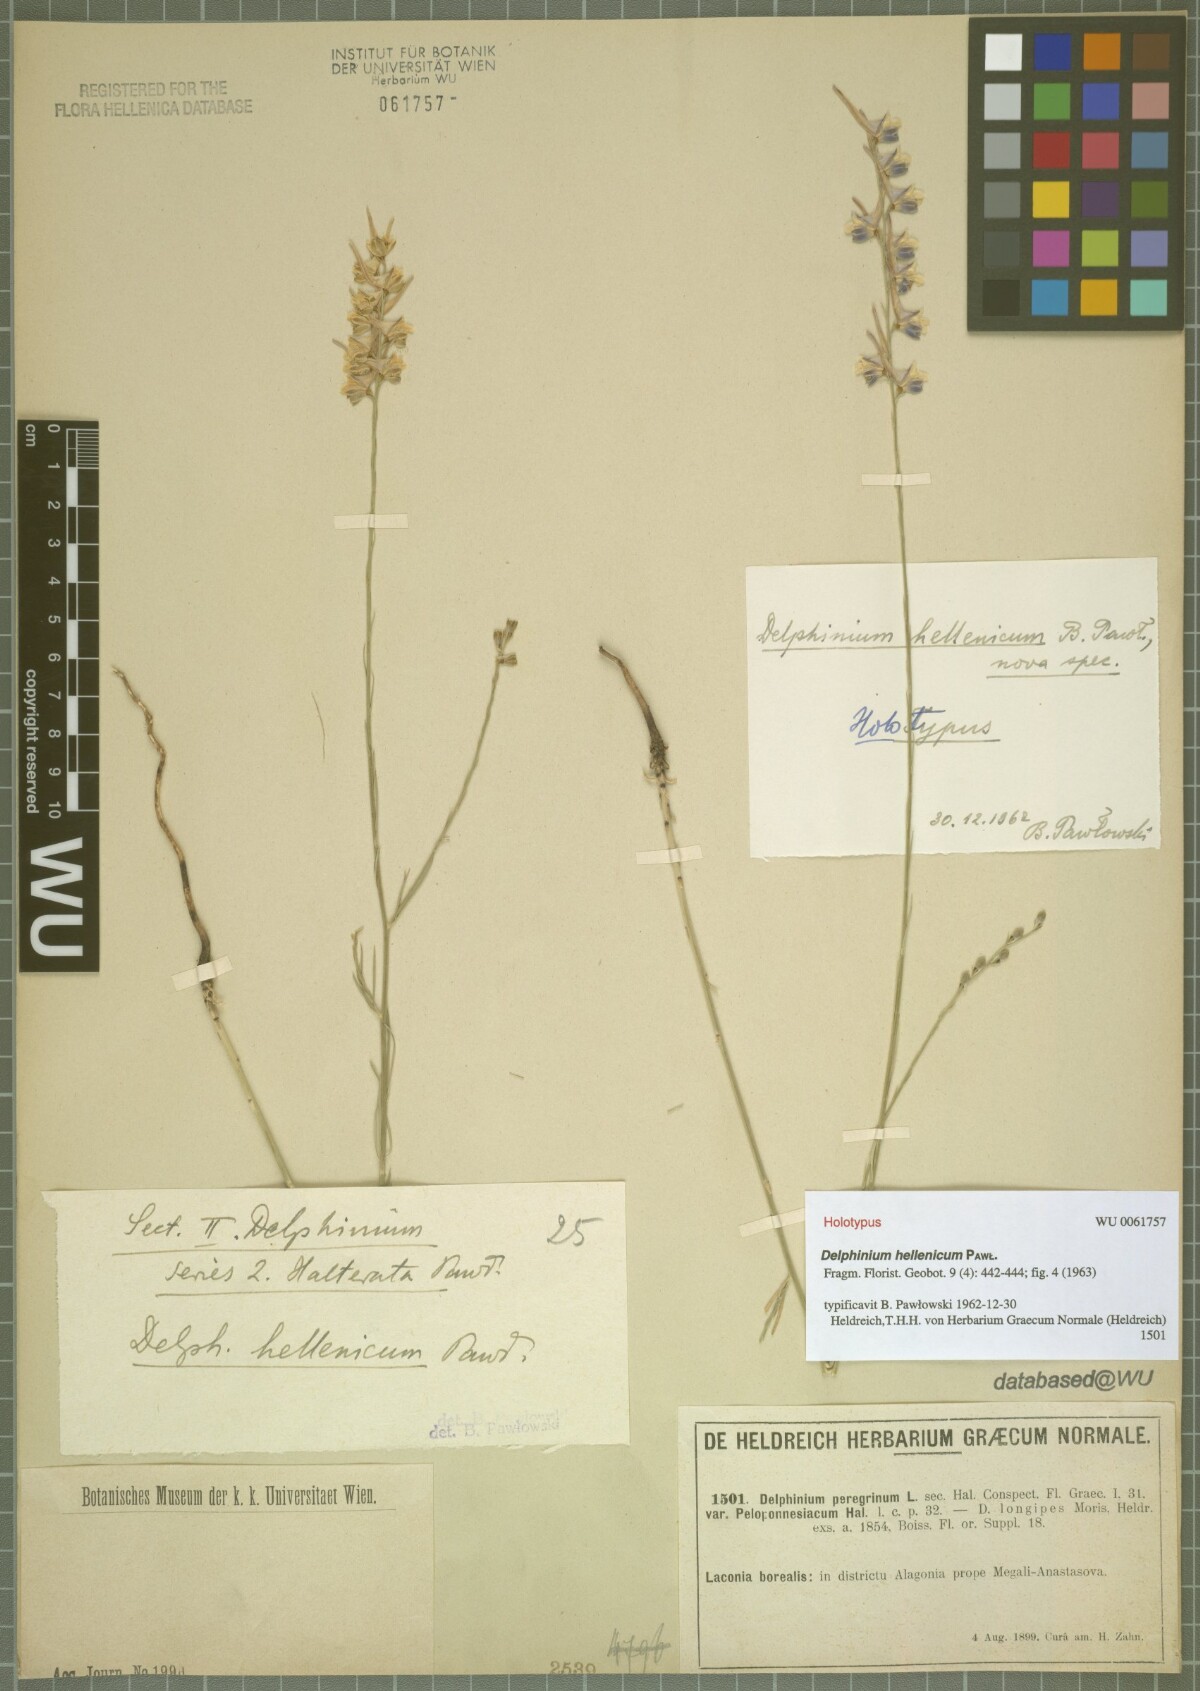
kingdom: Plantae
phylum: Tracheophyta
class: Magnoliopsida
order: Ranunculales
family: Ranunculaceae
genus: Delphinium
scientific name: Delphinium hellenicum
